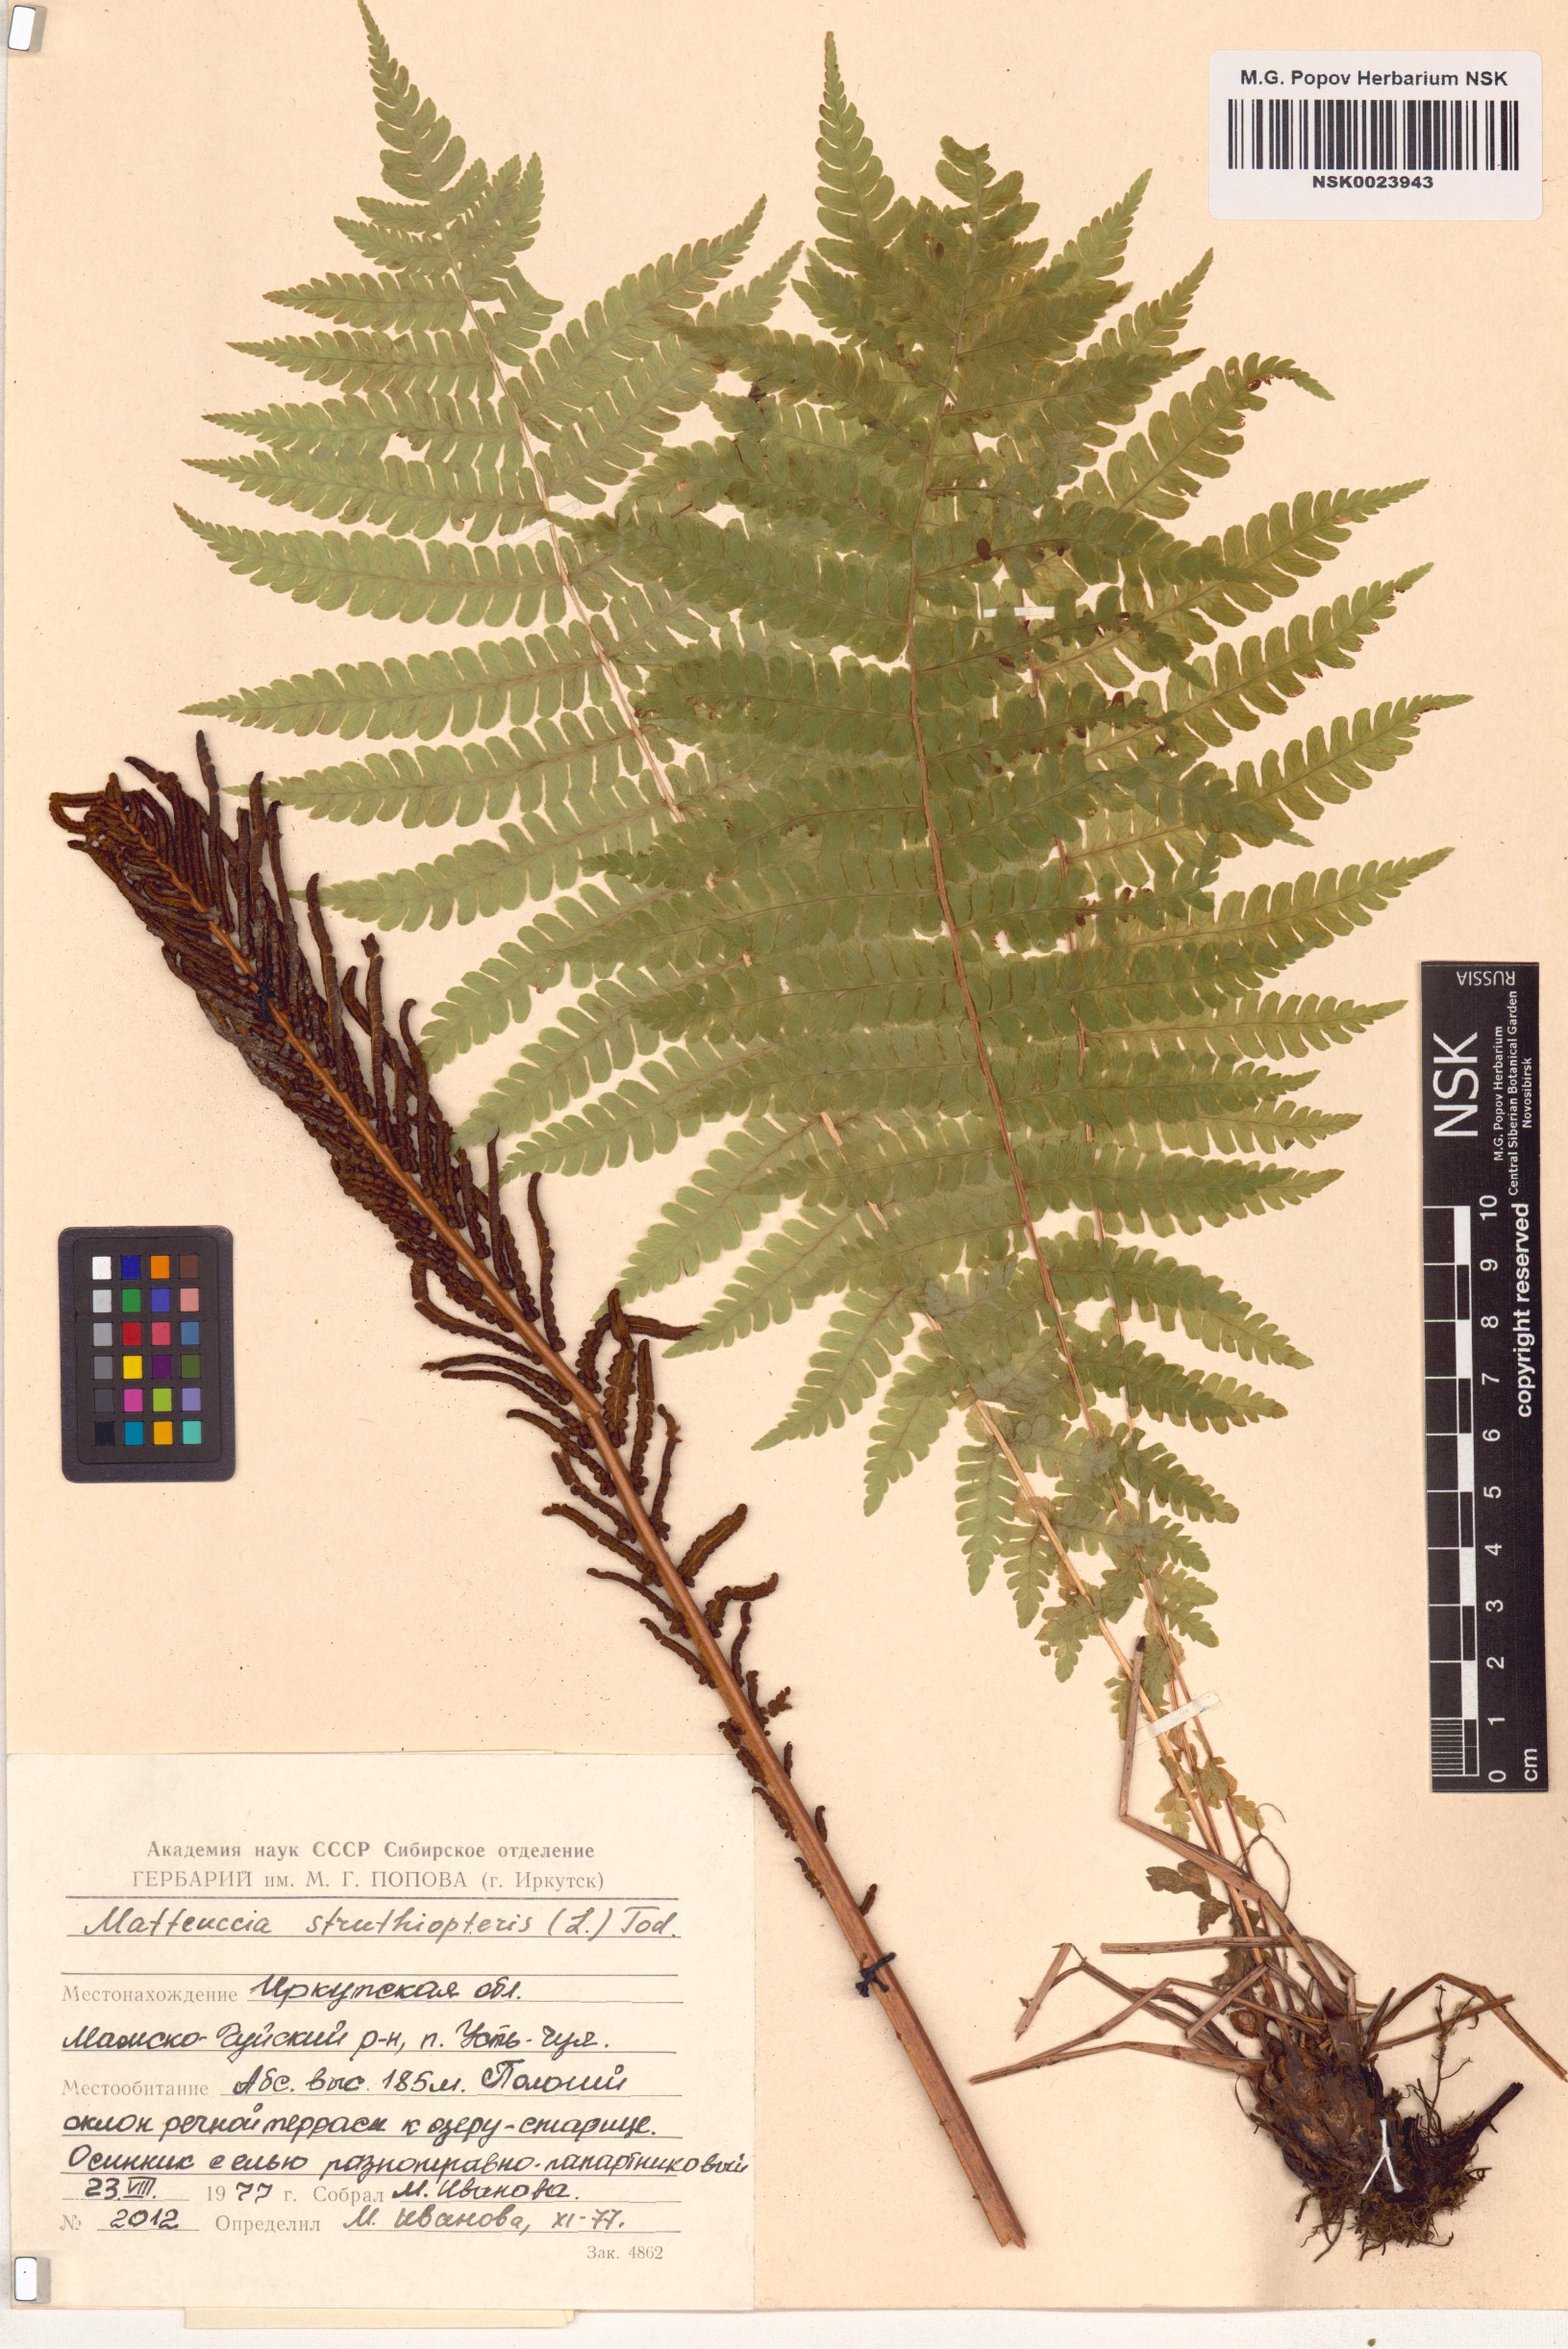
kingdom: Plantae
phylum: Tracheophyta
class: Polypodiopsida
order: Polypodiales
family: Onocleaceae
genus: Matteuccia
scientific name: Matteuccia struthiopteris
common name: Ostrich fern
